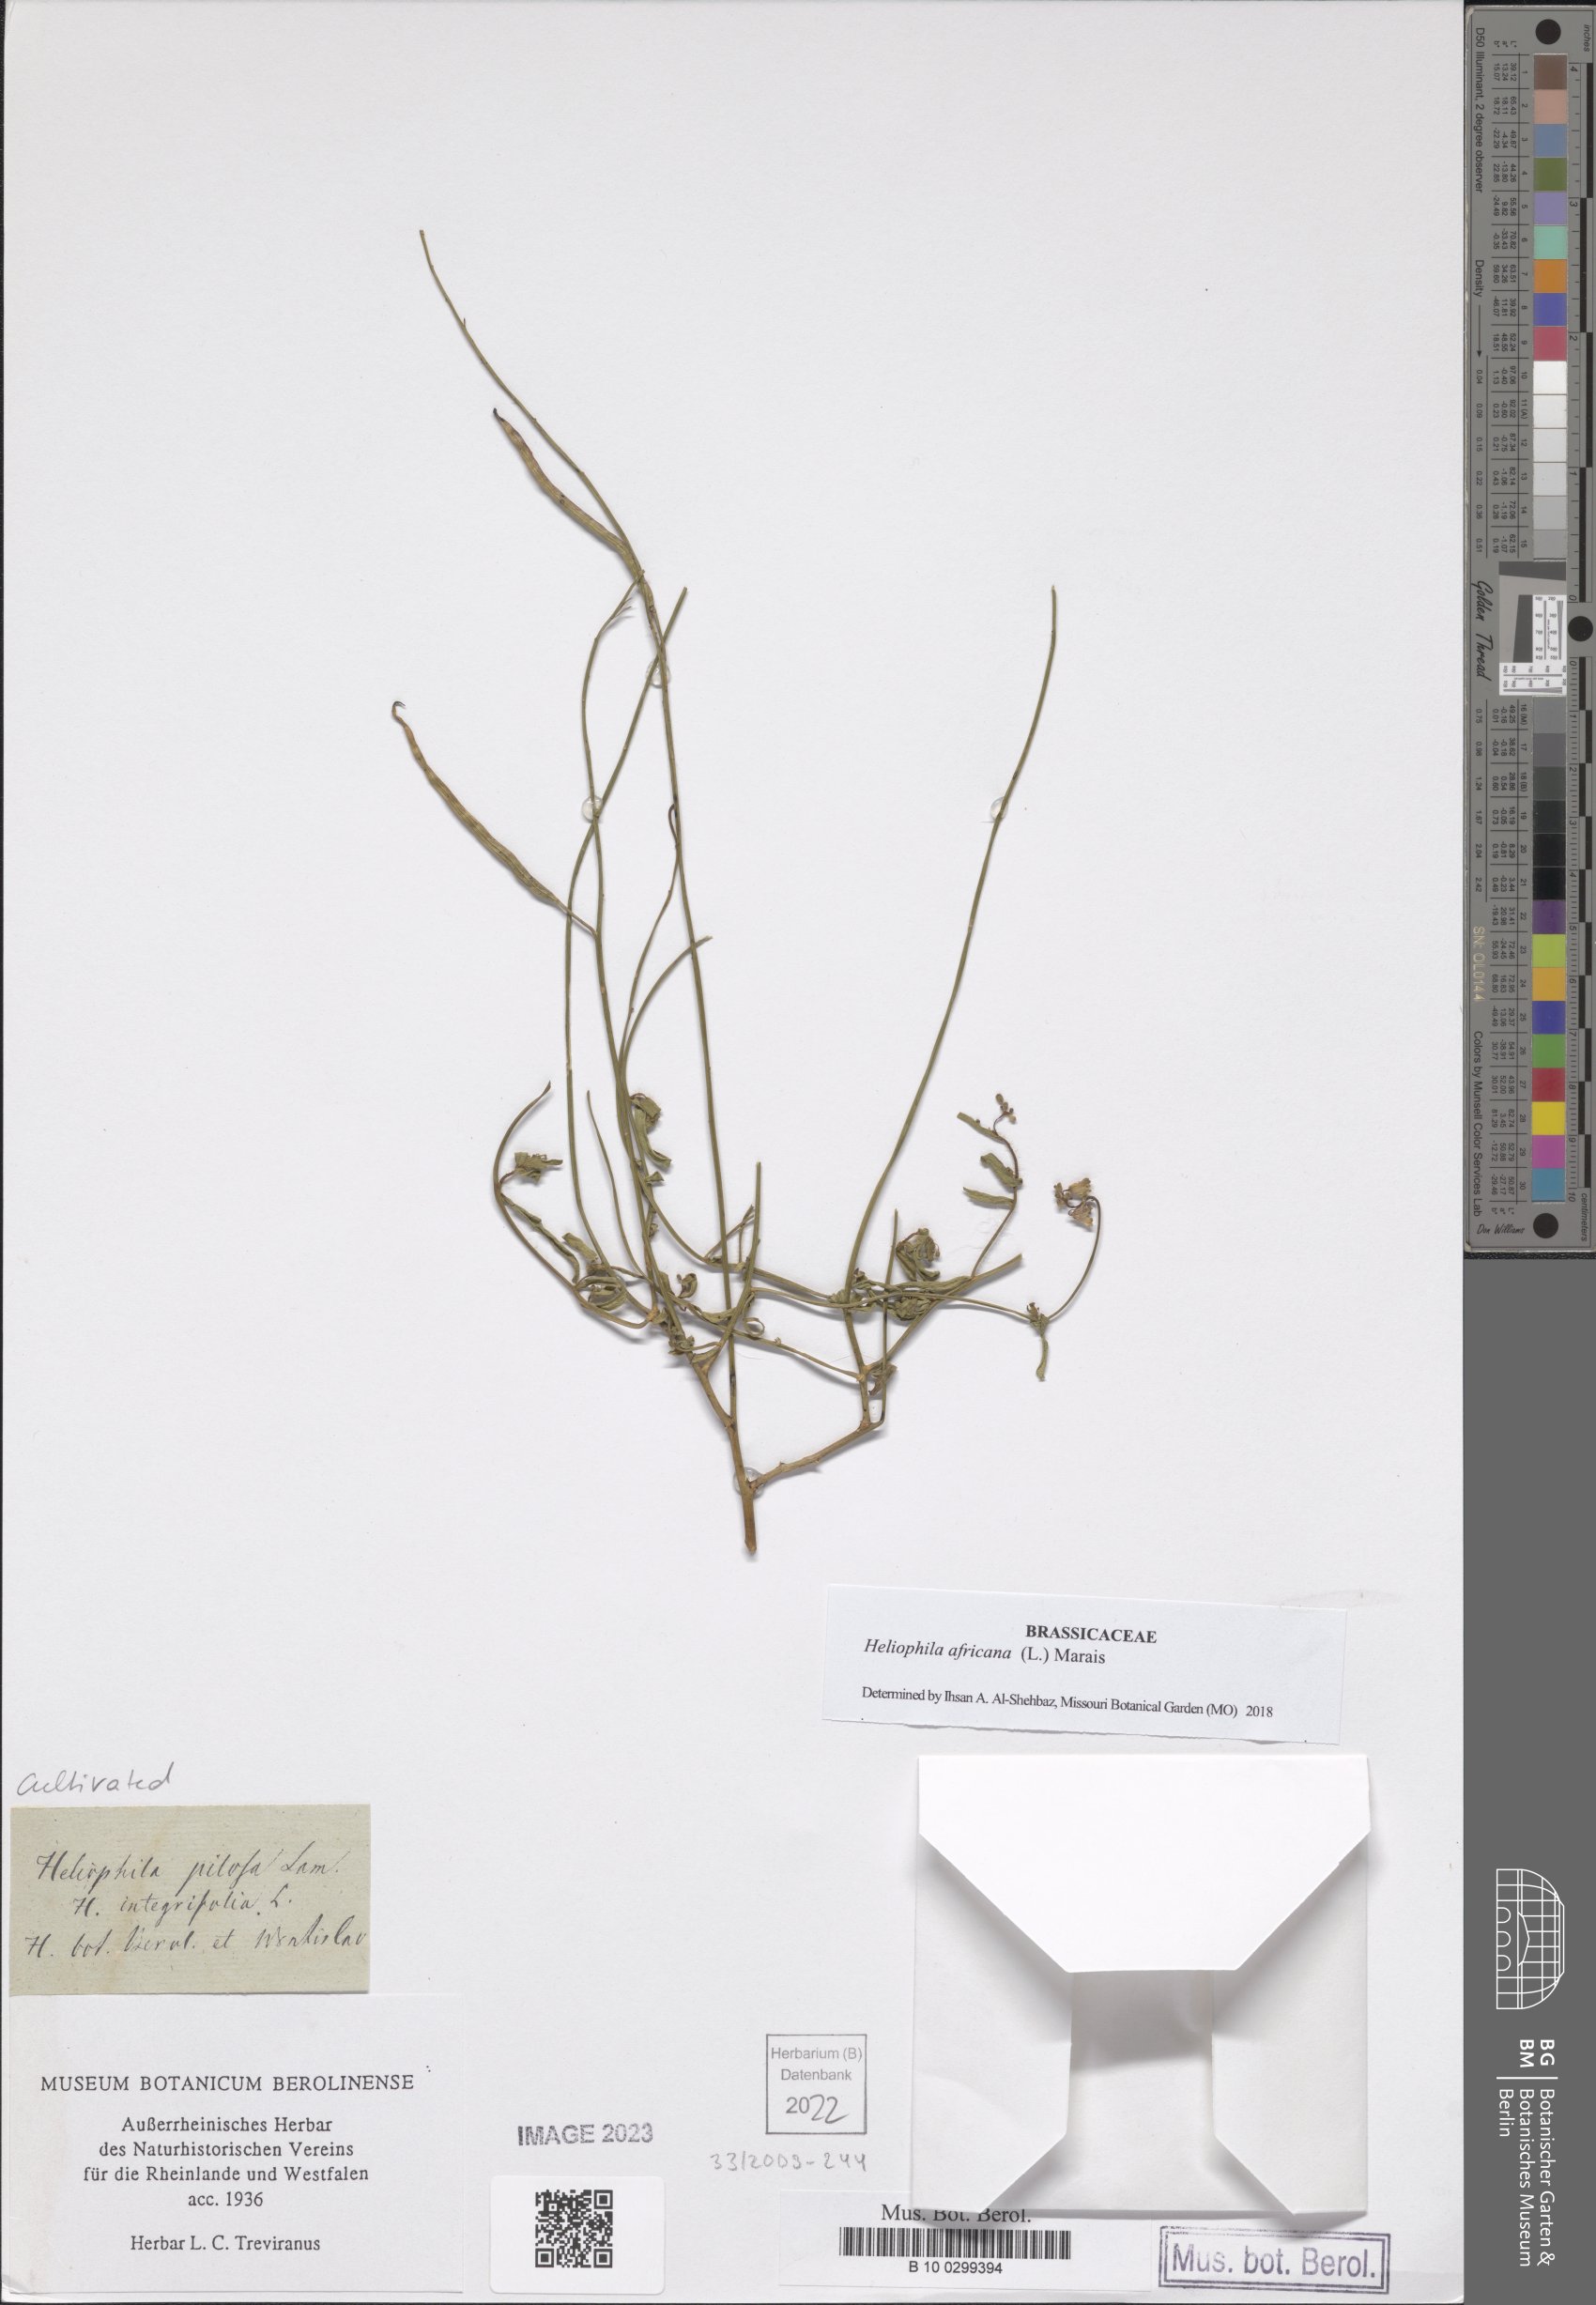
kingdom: Plantae
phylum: Tracheophyta
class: Magnoliopsida
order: Brassicales
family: Brassicaceae
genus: Heliophila
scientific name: Heliophila africana
